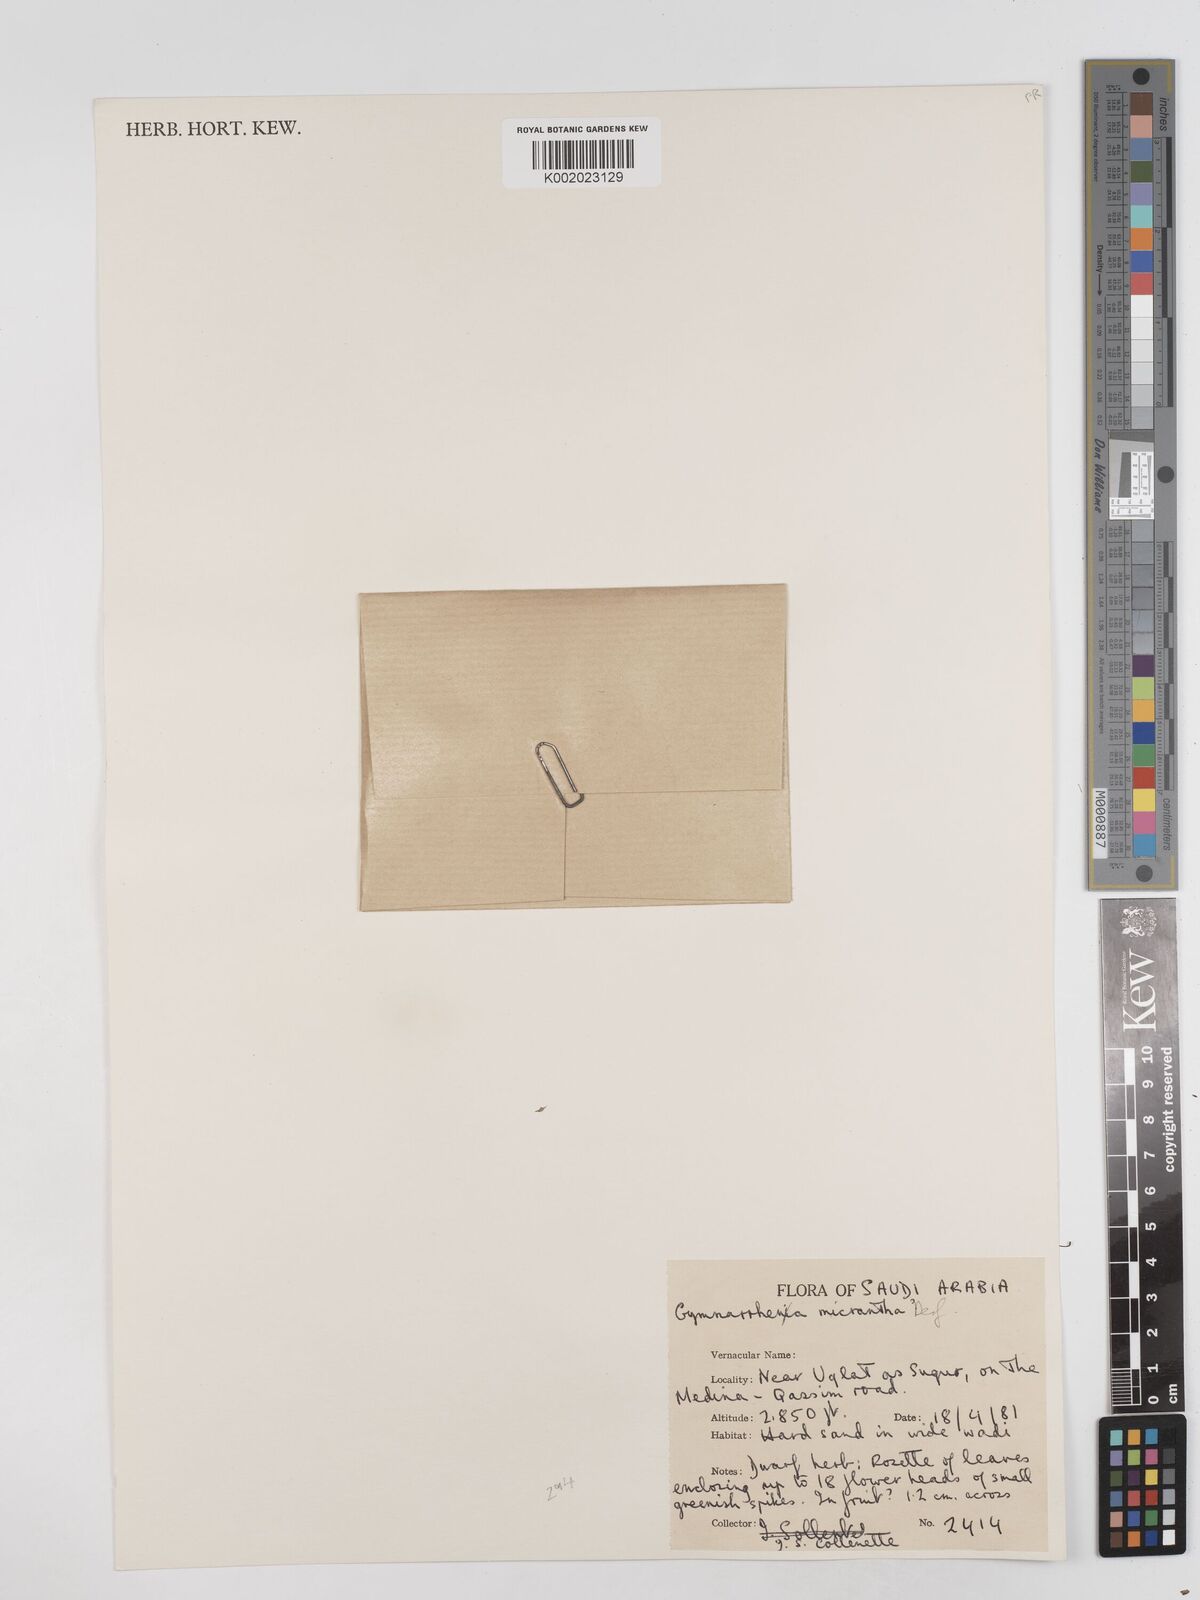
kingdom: Plantae
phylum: Tracheophyta
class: Magnoliopsida
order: Asterales
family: Asteraceae
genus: Gymnarrhena
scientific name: Gymnarrhena micrantha
